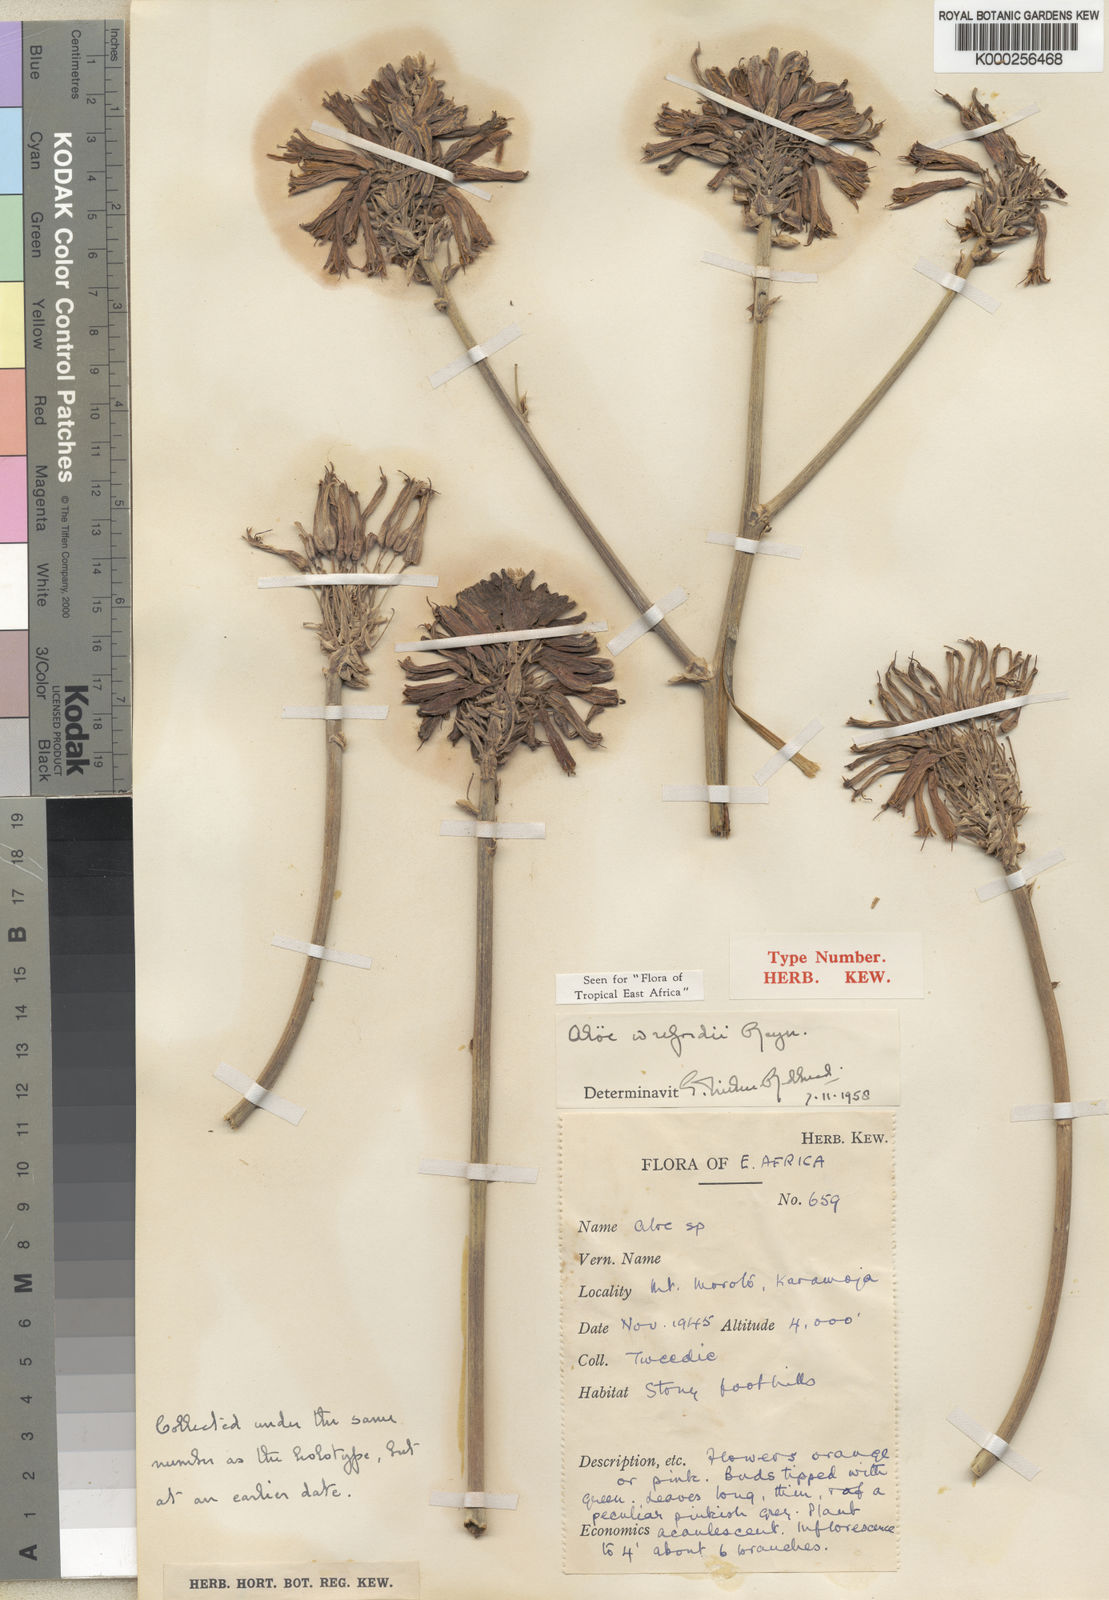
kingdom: Plantae
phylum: Tracheophyta
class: Liliopsida
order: Asparagales
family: Asphodelaceae
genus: Aloe
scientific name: Aloe wrefordii
